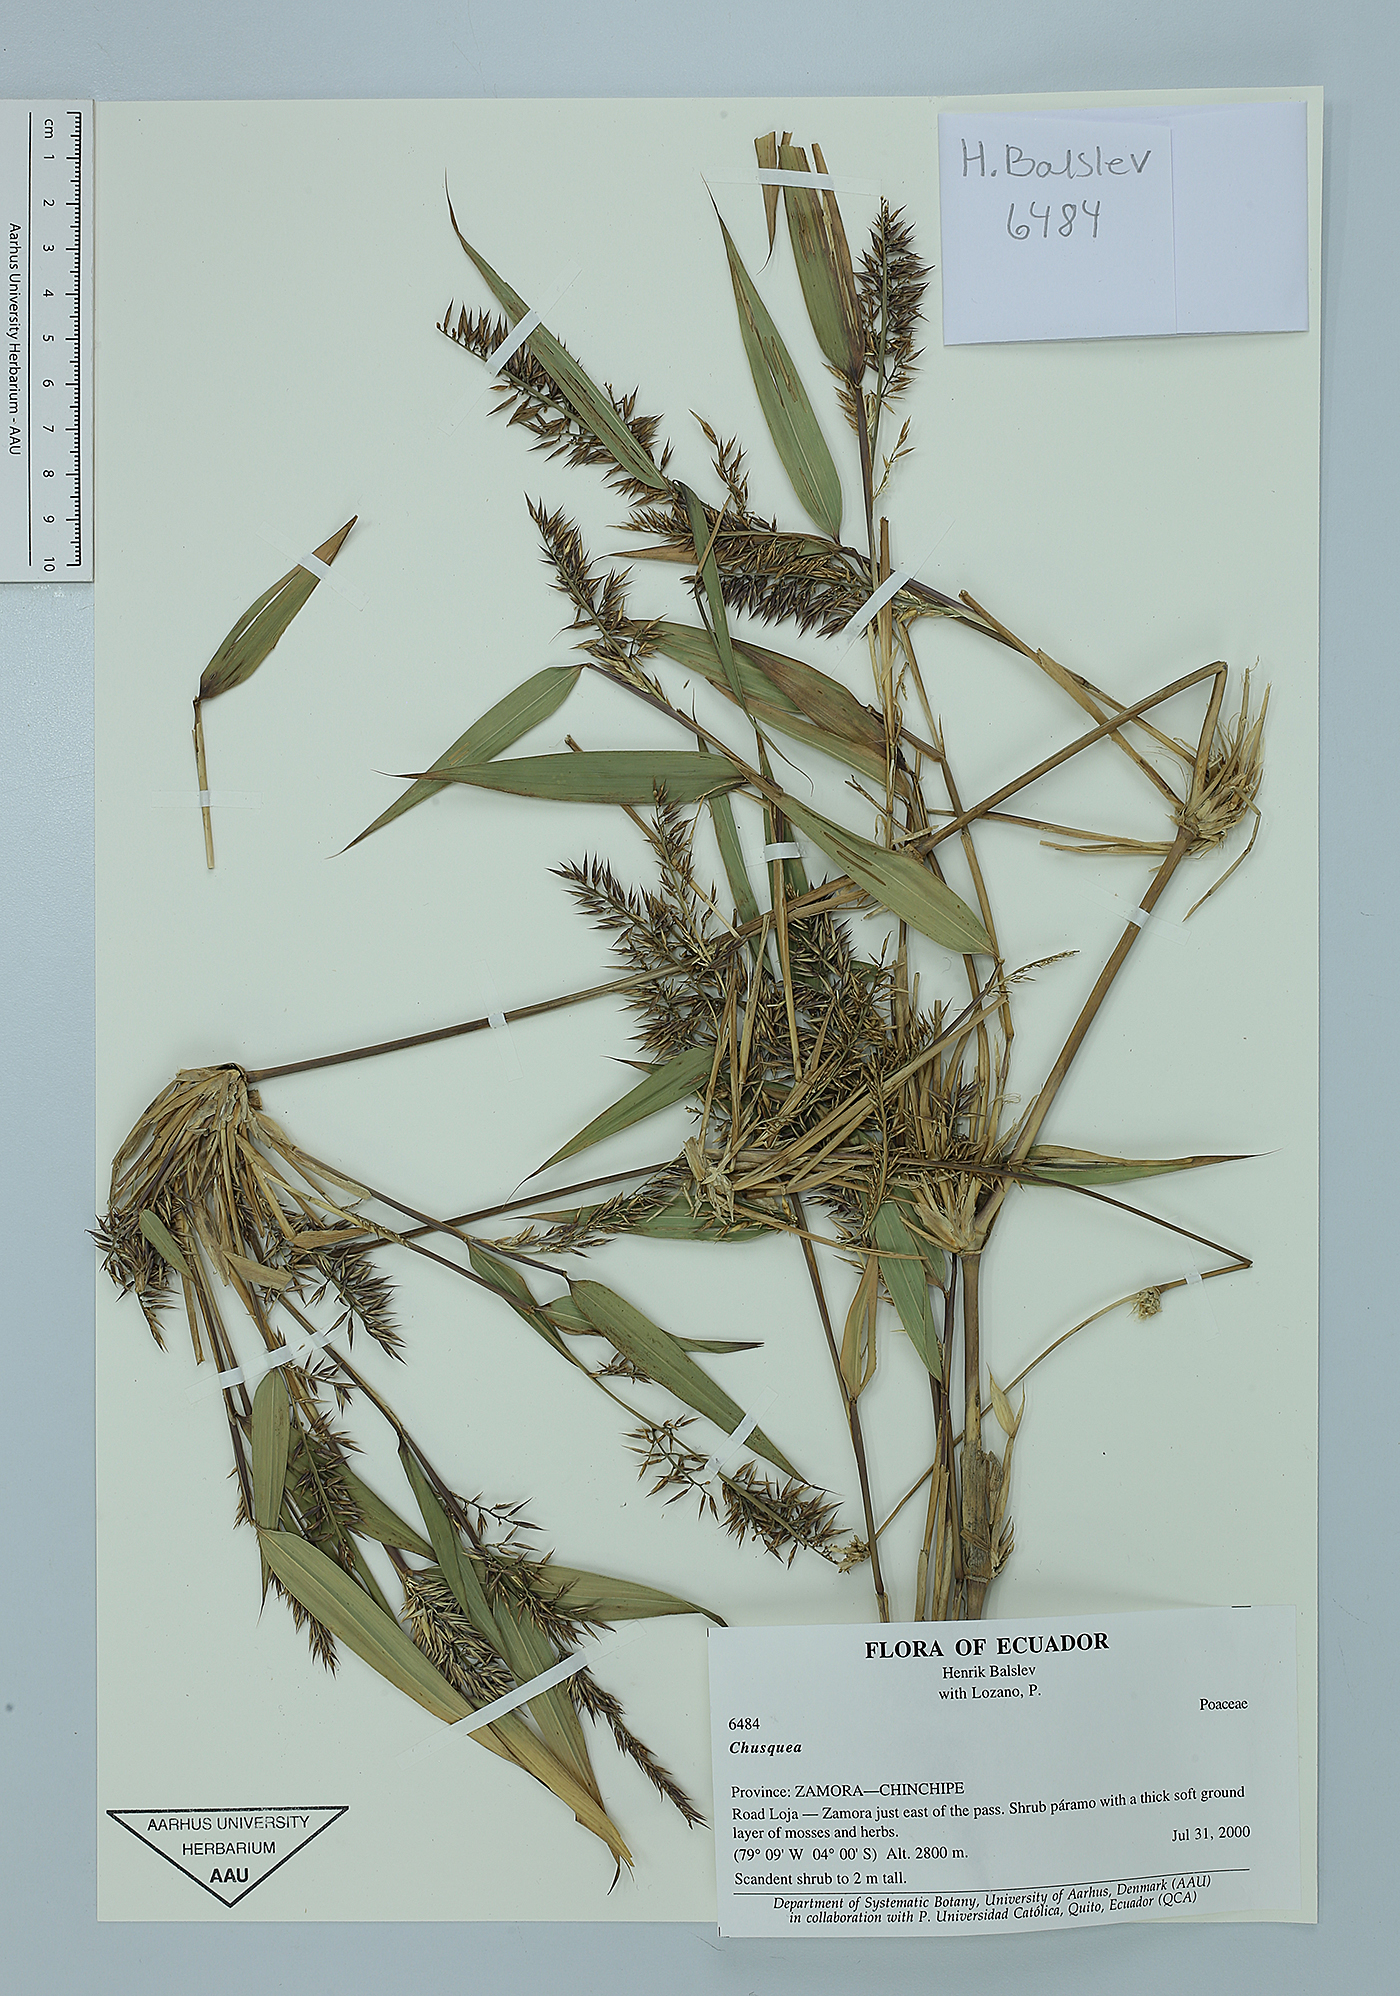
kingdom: Plantae
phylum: Tracheophyta
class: Liliopsida
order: Poales
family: Poaceae
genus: Chusquea
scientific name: Chusquea scandens
